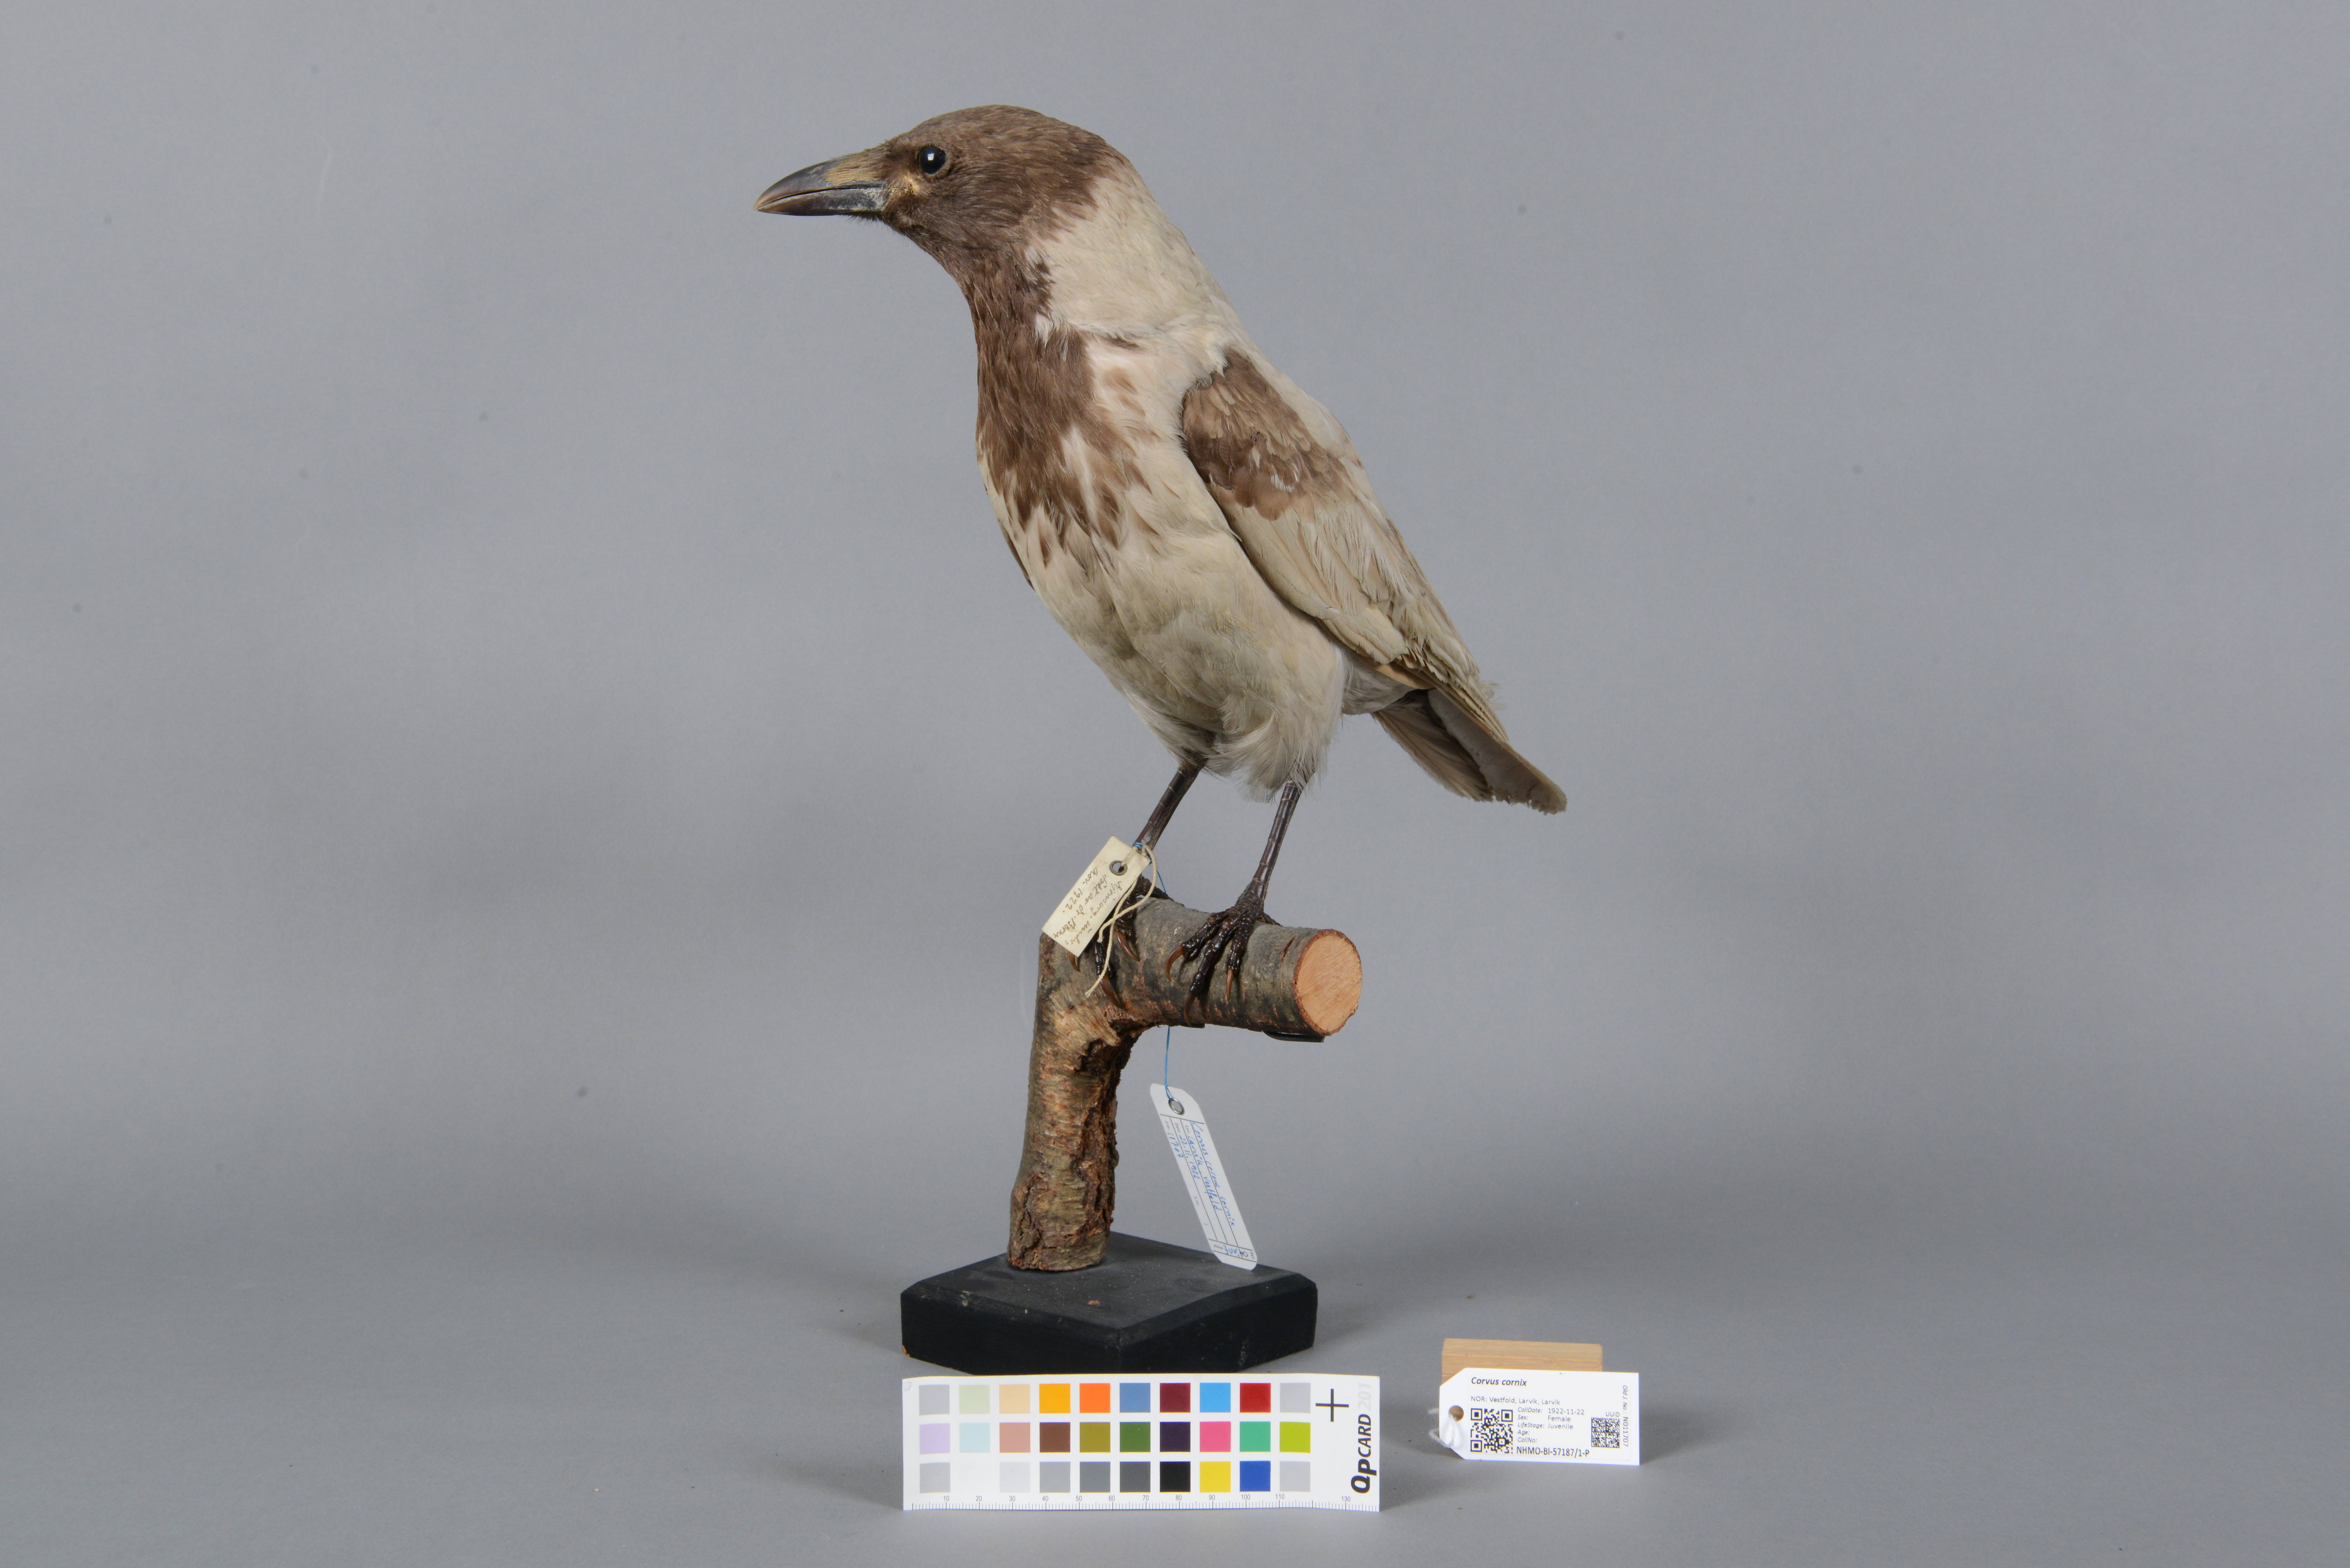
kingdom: Animalia
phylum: Chordata
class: Aves
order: Passeriformes
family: Corvidae
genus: Corvus
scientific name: Corvus cornix
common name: Hooded crow
